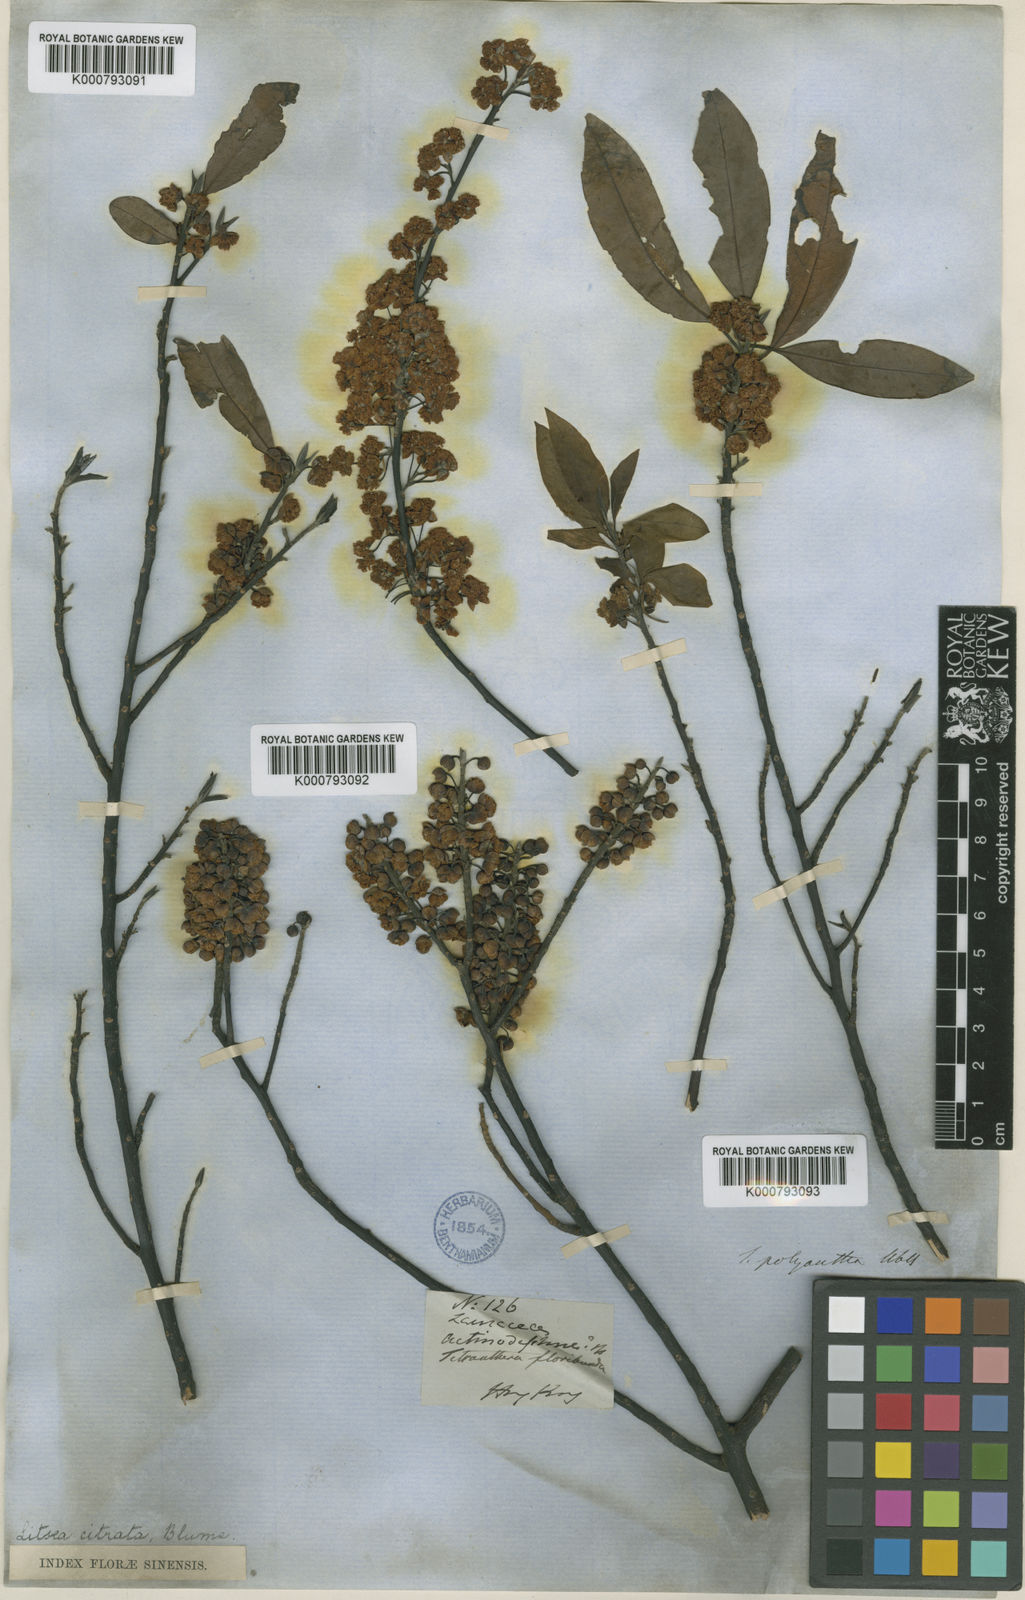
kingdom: Plantae
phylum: Tracheophyta
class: Magnoliopsida
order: Laurales
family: Lauraceae
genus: Litsea
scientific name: Litsea cubeba
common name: Mountain-pepper
